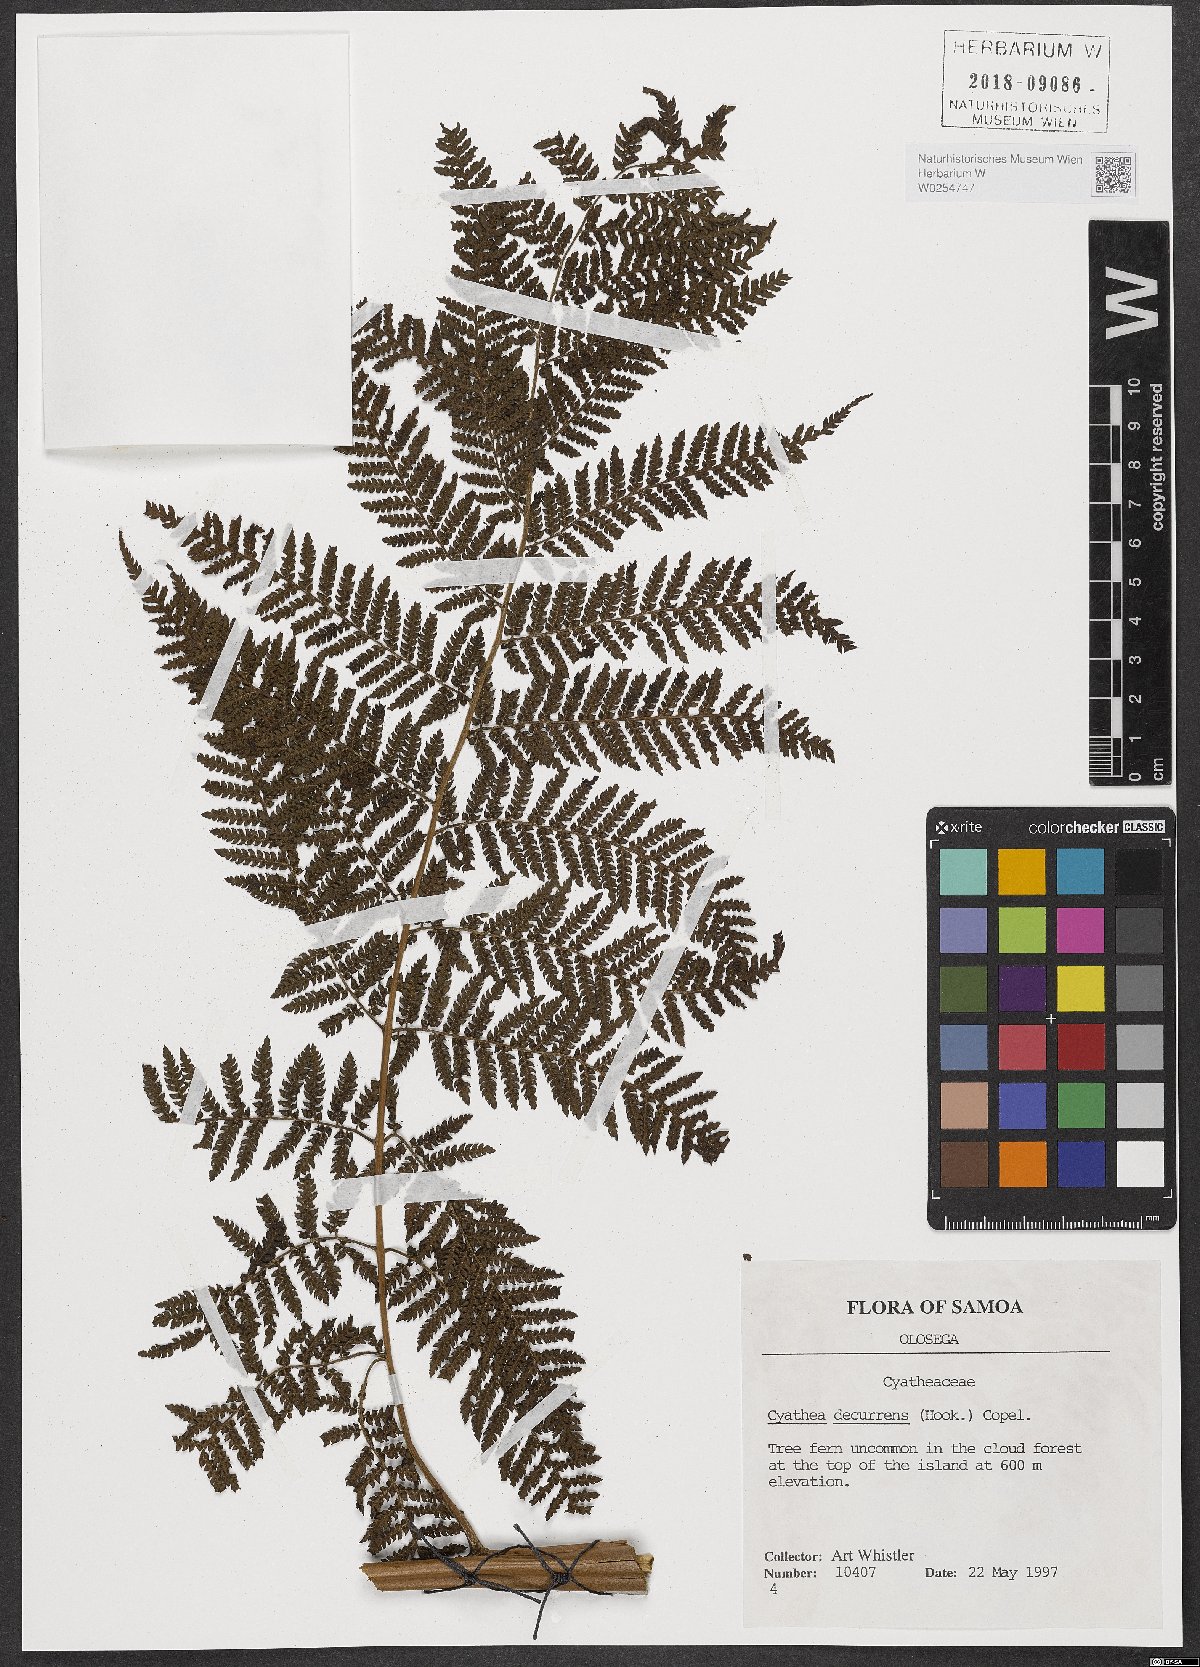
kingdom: Plantae
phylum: Tracheophyta
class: Polypodiopsida
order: Cyatheales
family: Cyatheaceae
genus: Cyathea
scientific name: Cyathea decurrens
